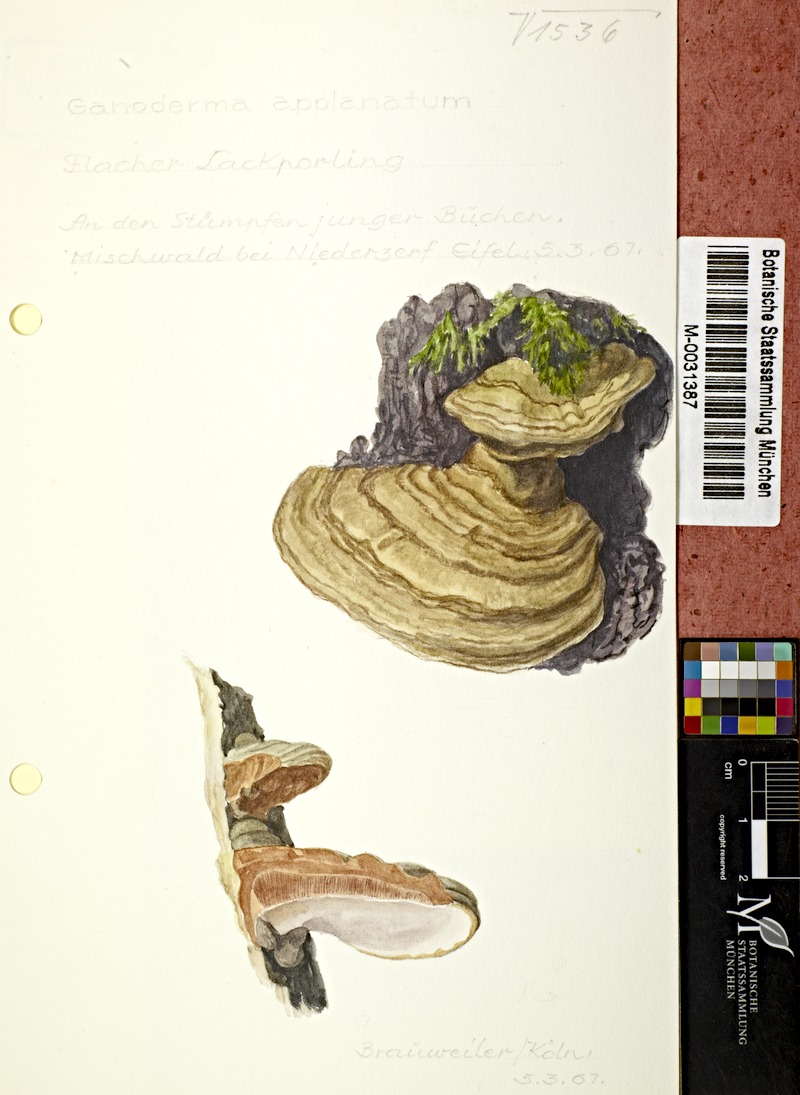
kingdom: Fungi
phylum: Basidiomycota
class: Agaricomycetes
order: Polyporales
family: Polyporaceae
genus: Ganoderma
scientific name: Ganoderma applanatum
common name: Artist's bracket
